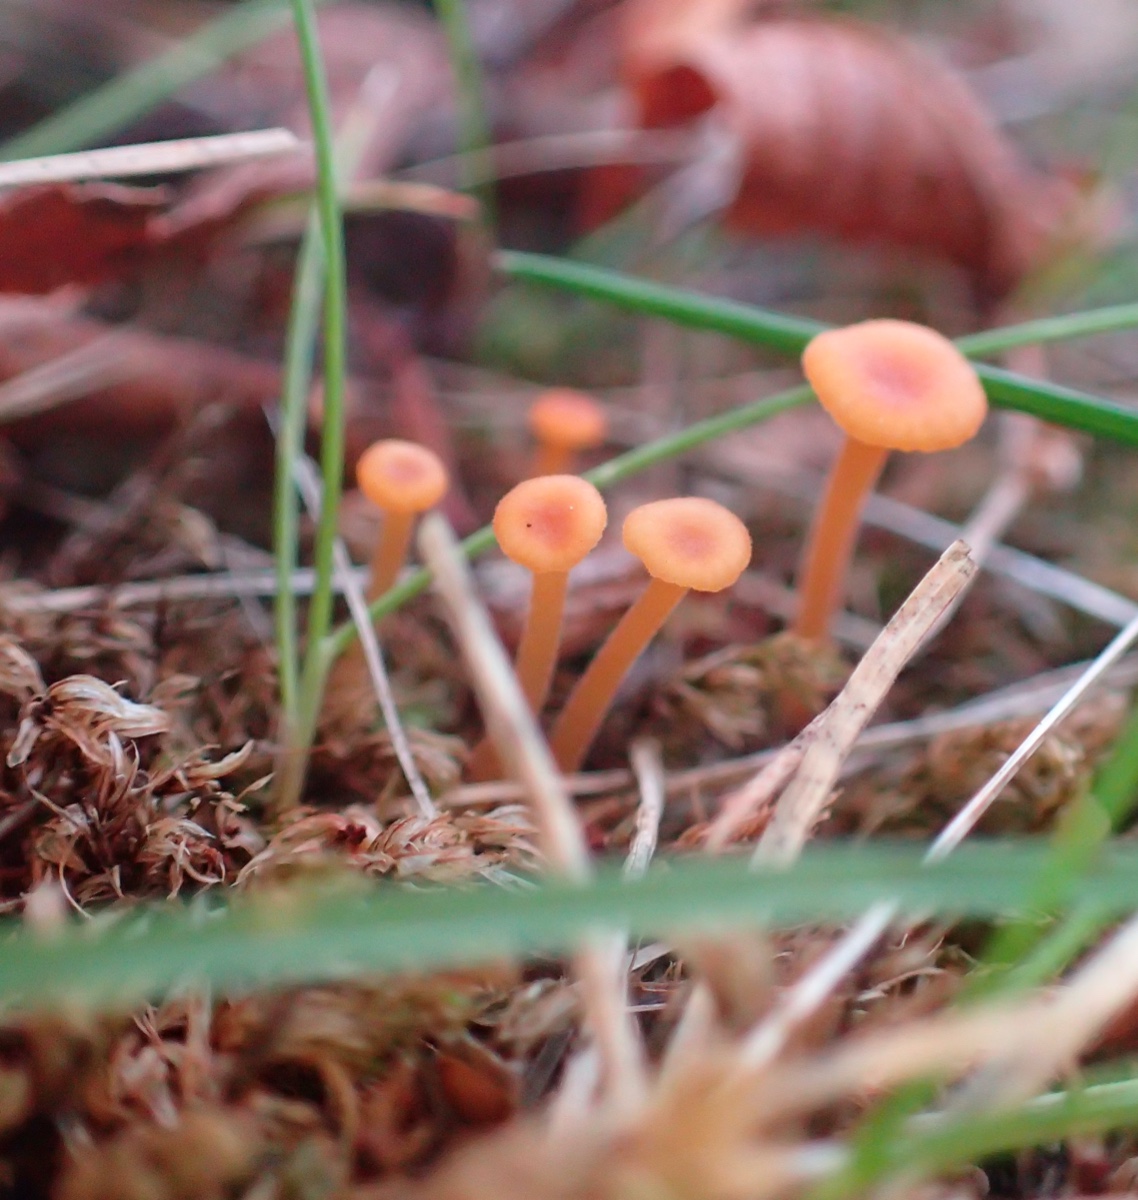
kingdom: Fungi
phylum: Basidiomycota
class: Agaricomycetes
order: Hymenochaetales
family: Rickenellaceae
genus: Rickenella
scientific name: Rickenella fibula
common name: orange mosnavlehat
